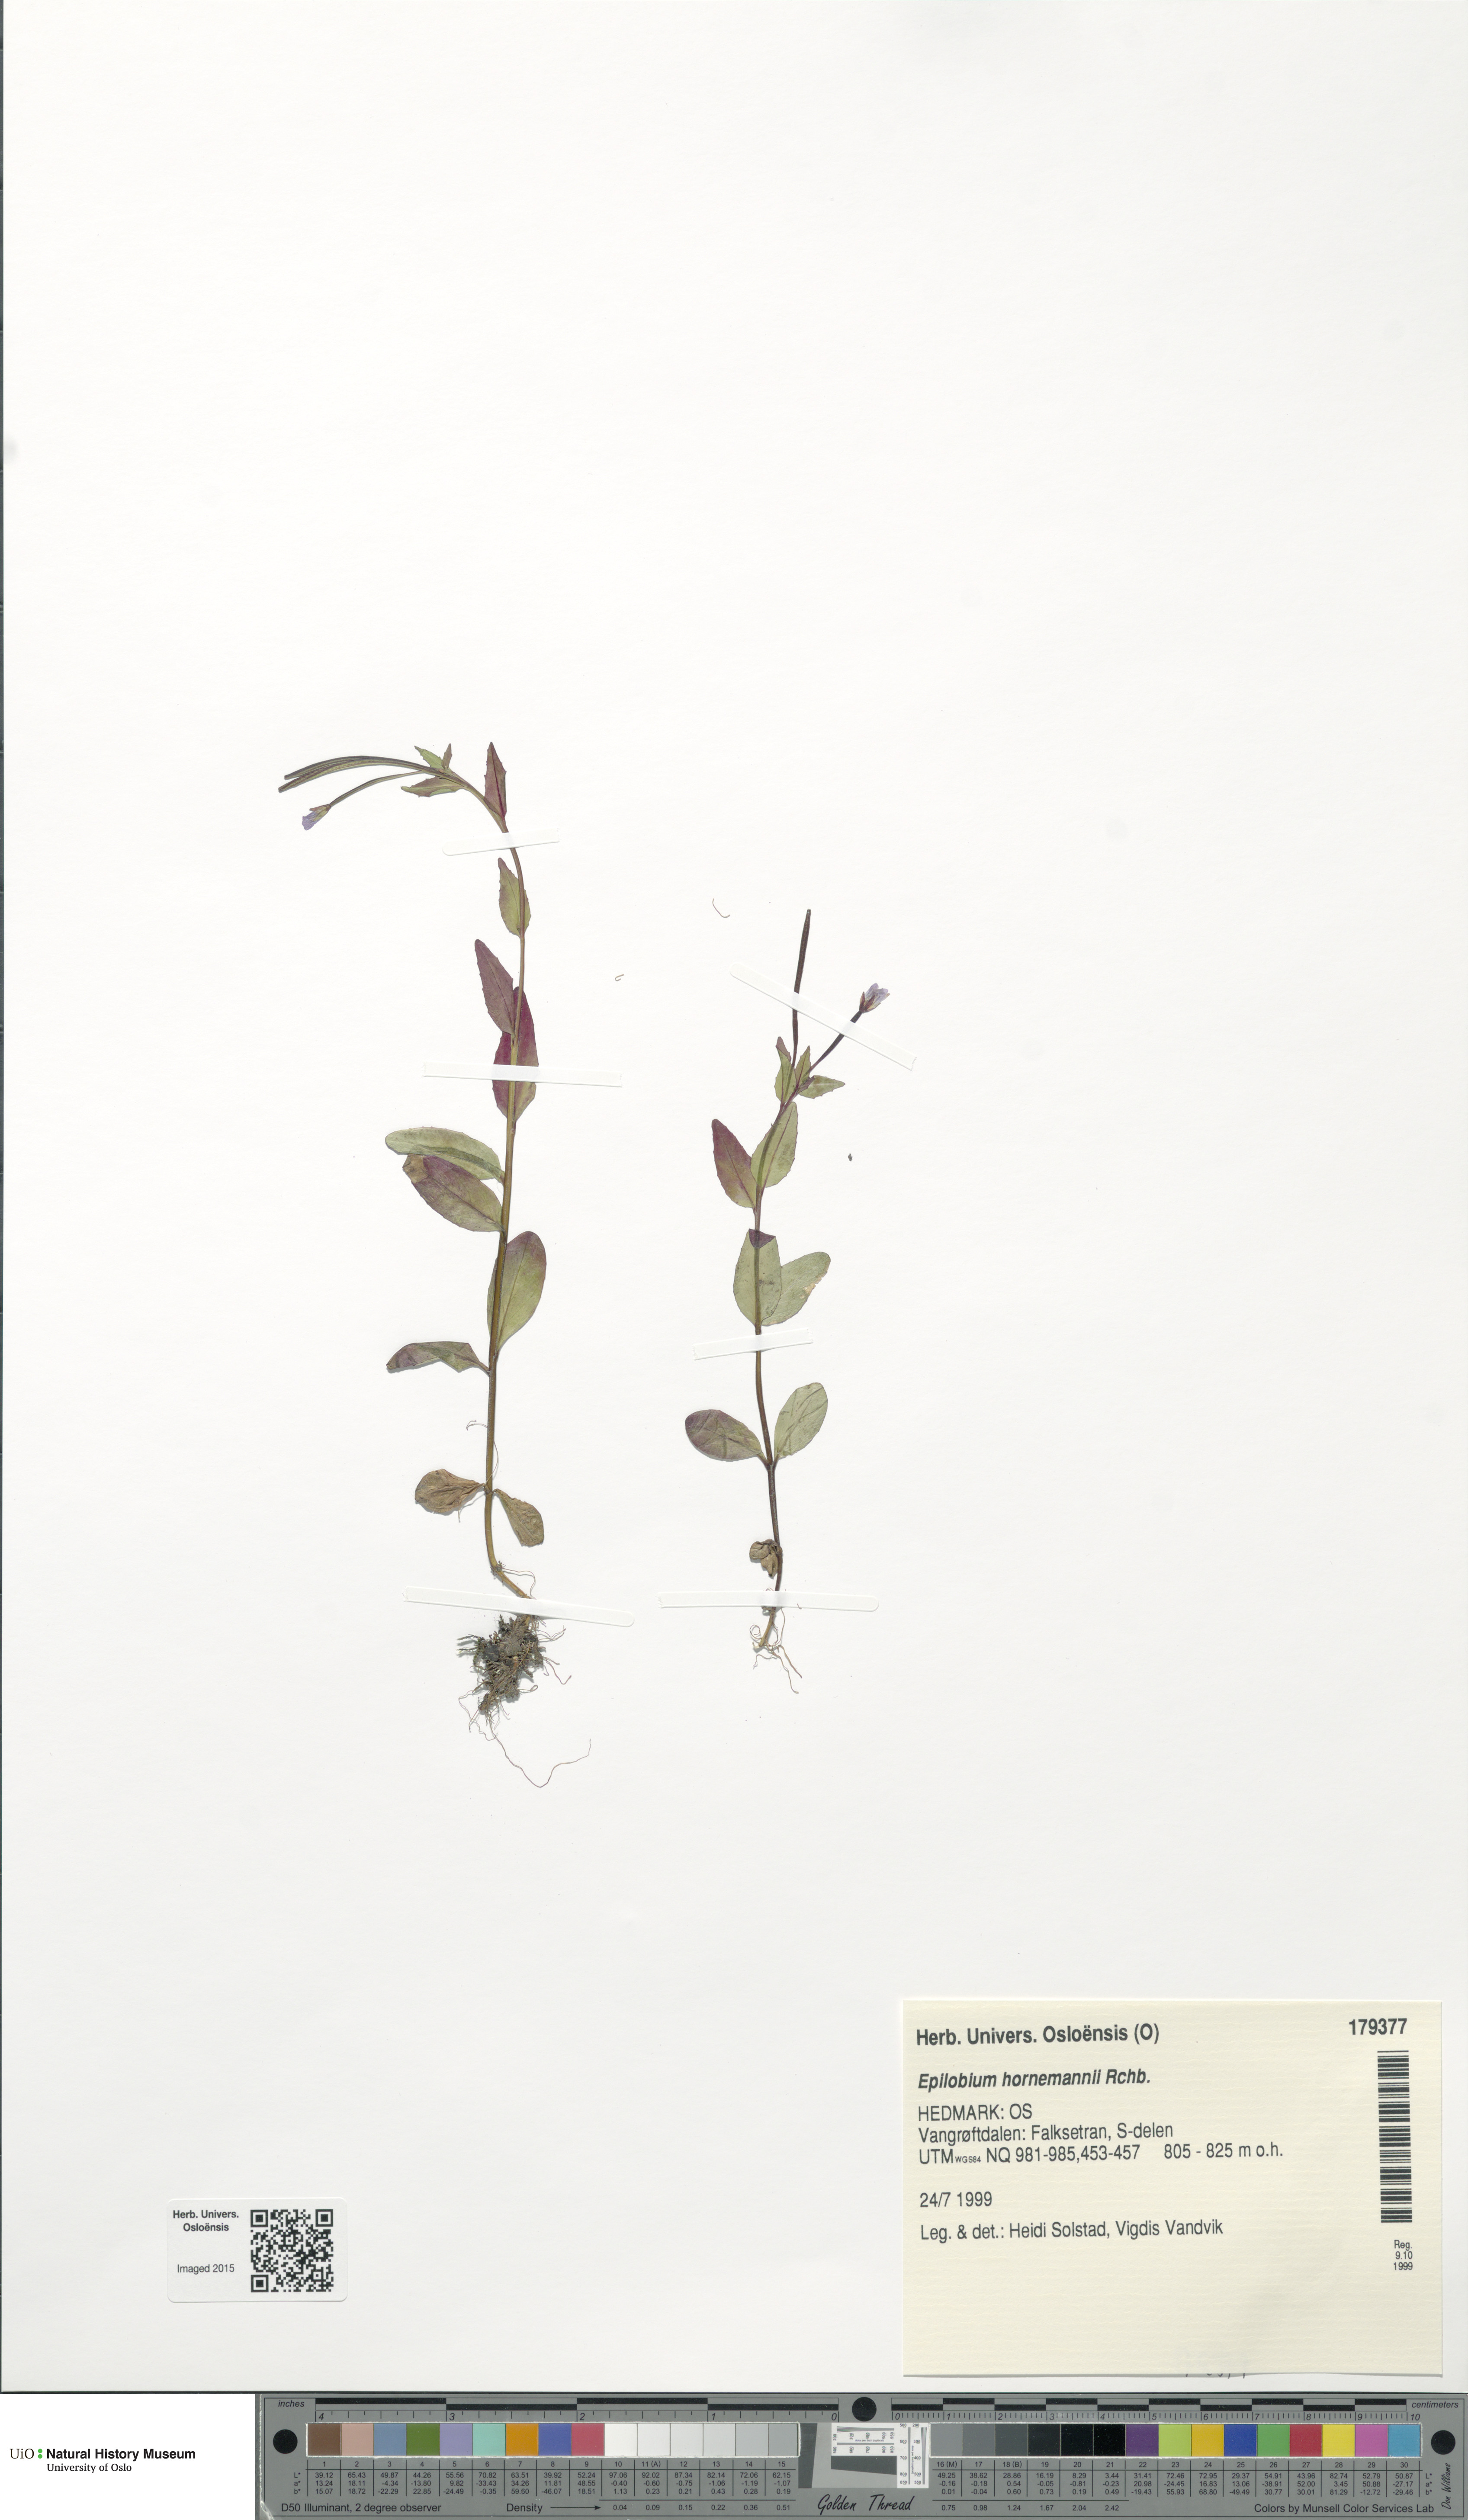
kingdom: Plantae
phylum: Tracheophyta
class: Magnoliopsida
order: Myrtales
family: Onagraceae
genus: Epilobium
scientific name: Epilobium hornemannii
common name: Hornemann's willowherb
